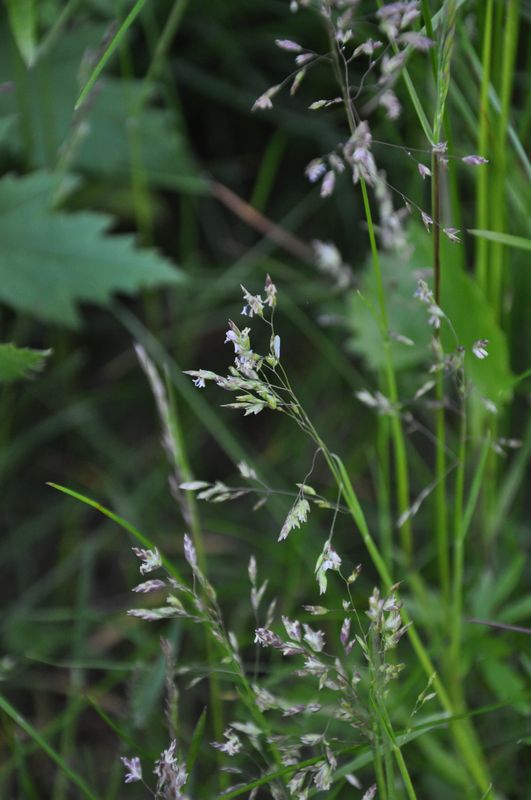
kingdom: Plantae
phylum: Tracheophyta
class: Liliopsida
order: Poales
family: Poaceae
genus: Poa
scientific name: Poa supina
